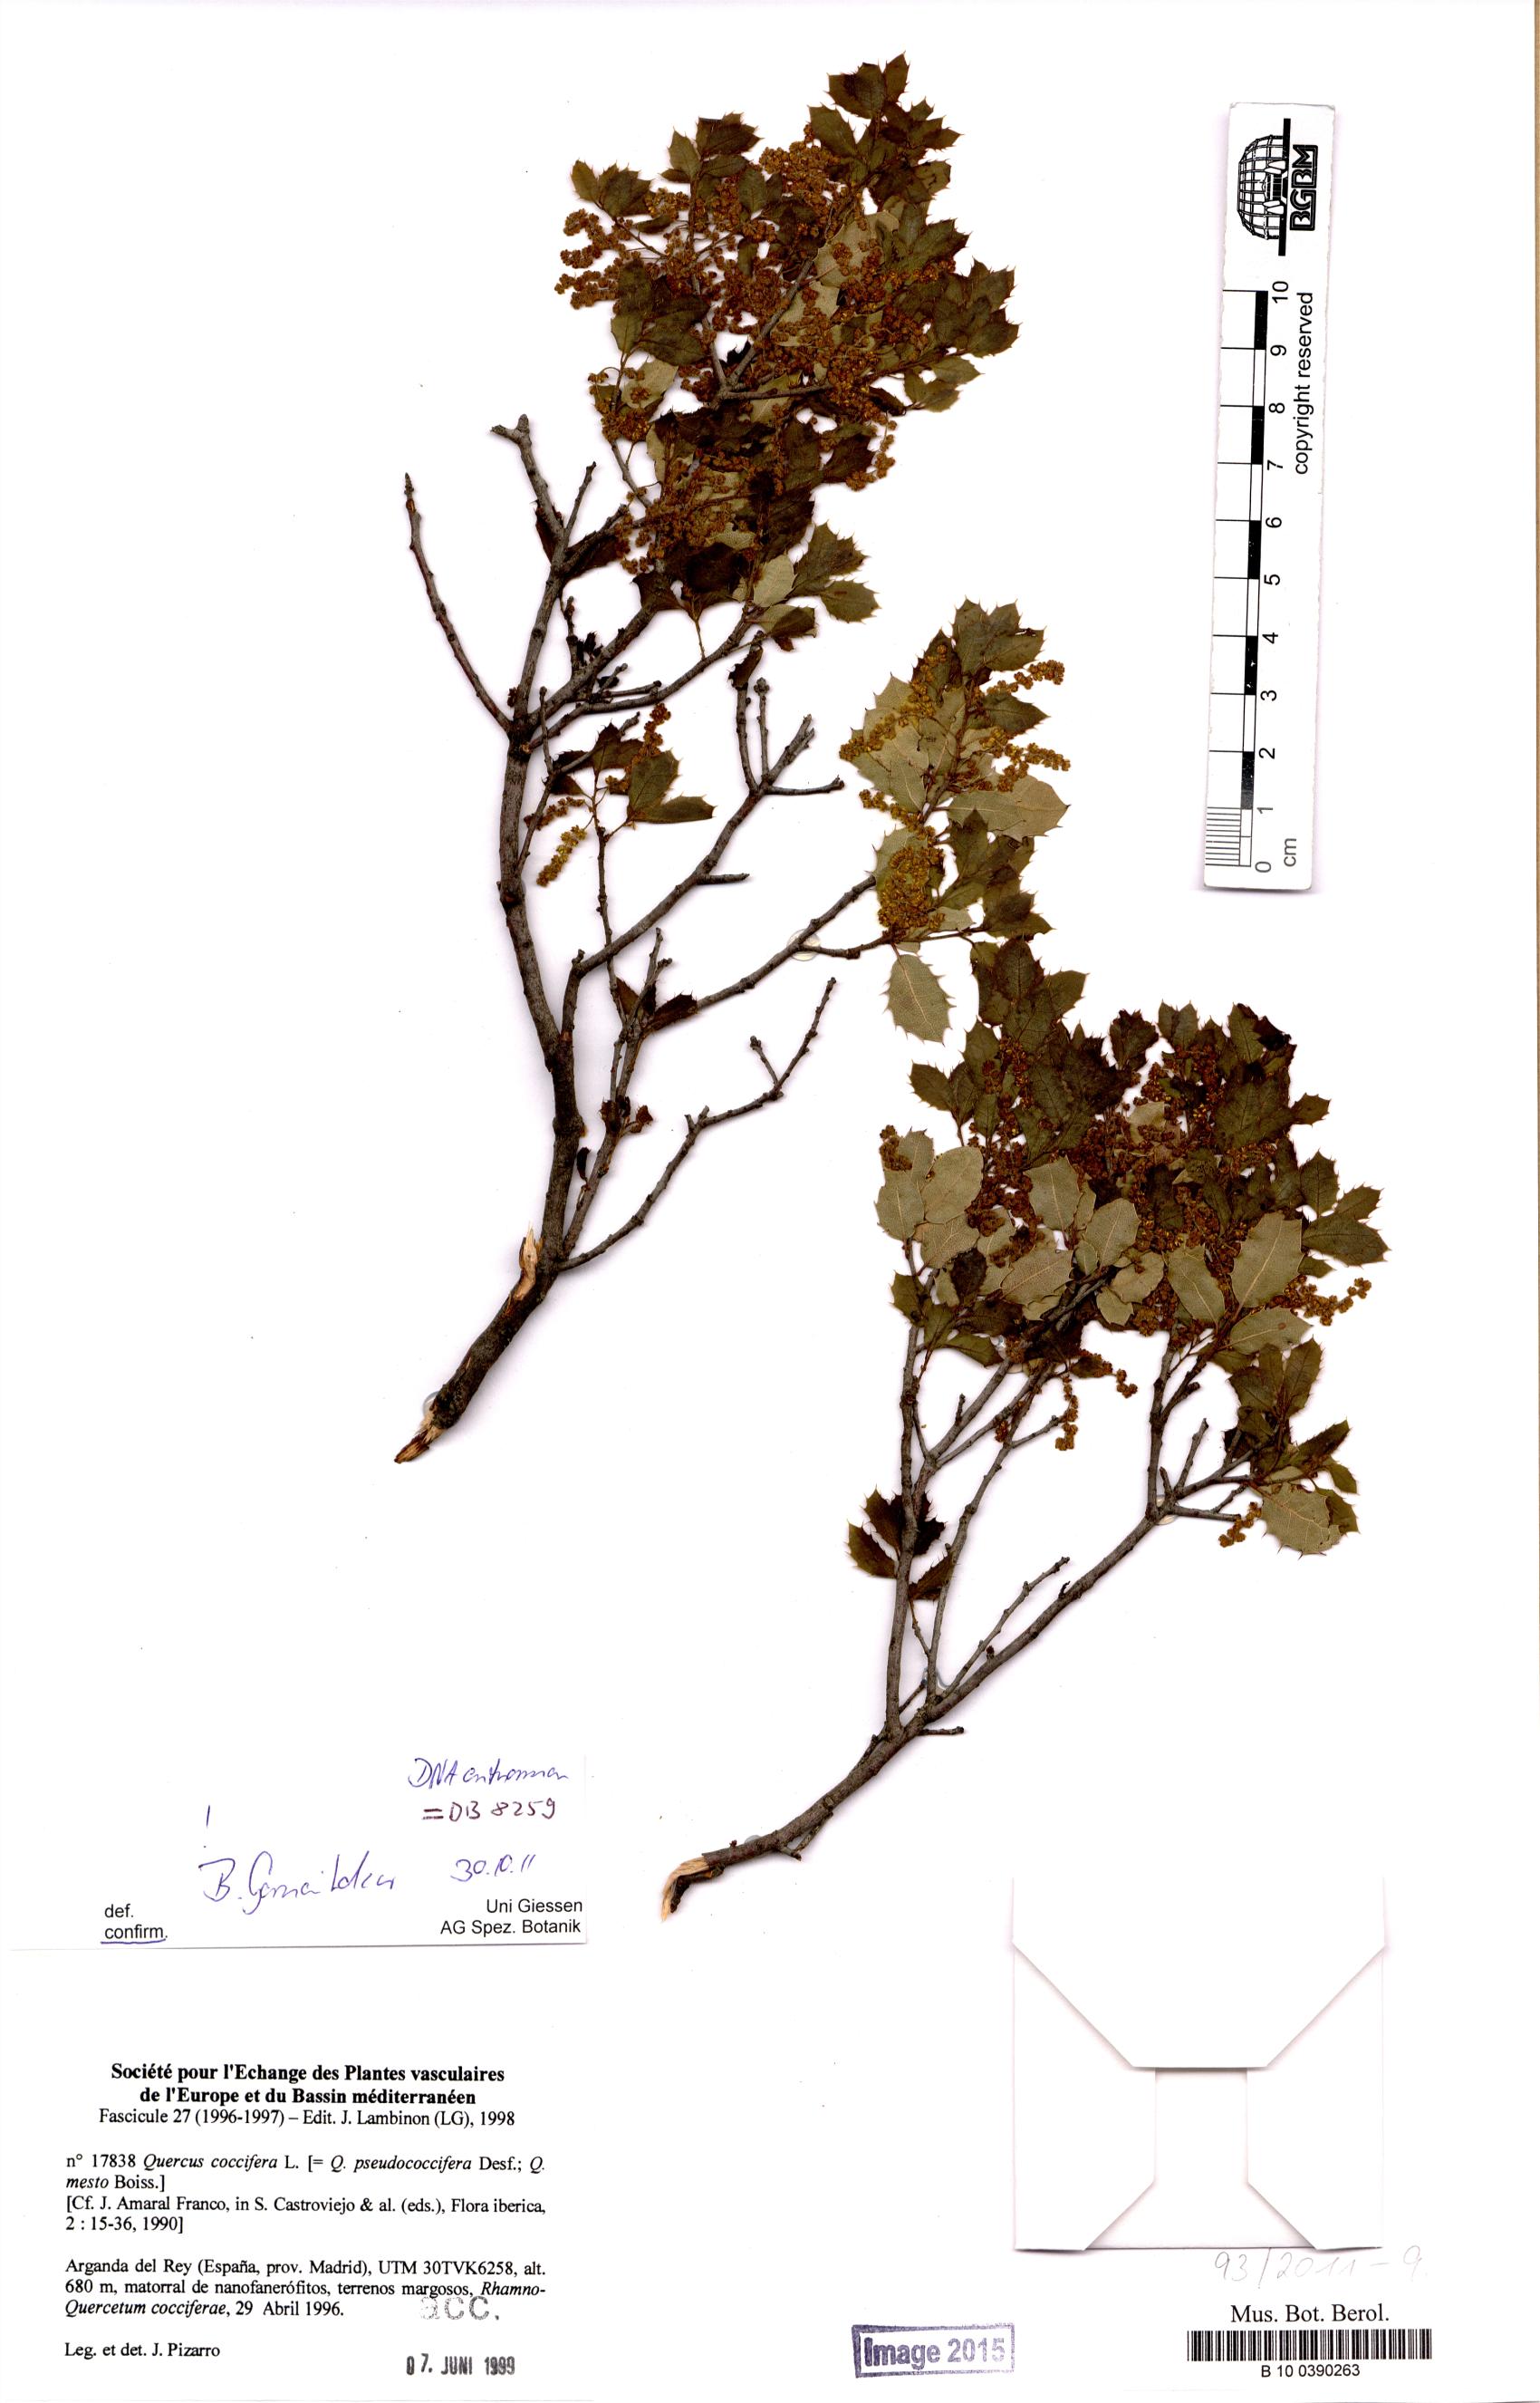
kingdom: Plantae
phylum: Tracheophyta
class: Magnoliopsida
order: Fagales
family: Fagaceae
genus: Quercus
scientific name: Quercus coccifera
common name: Kermes oak
